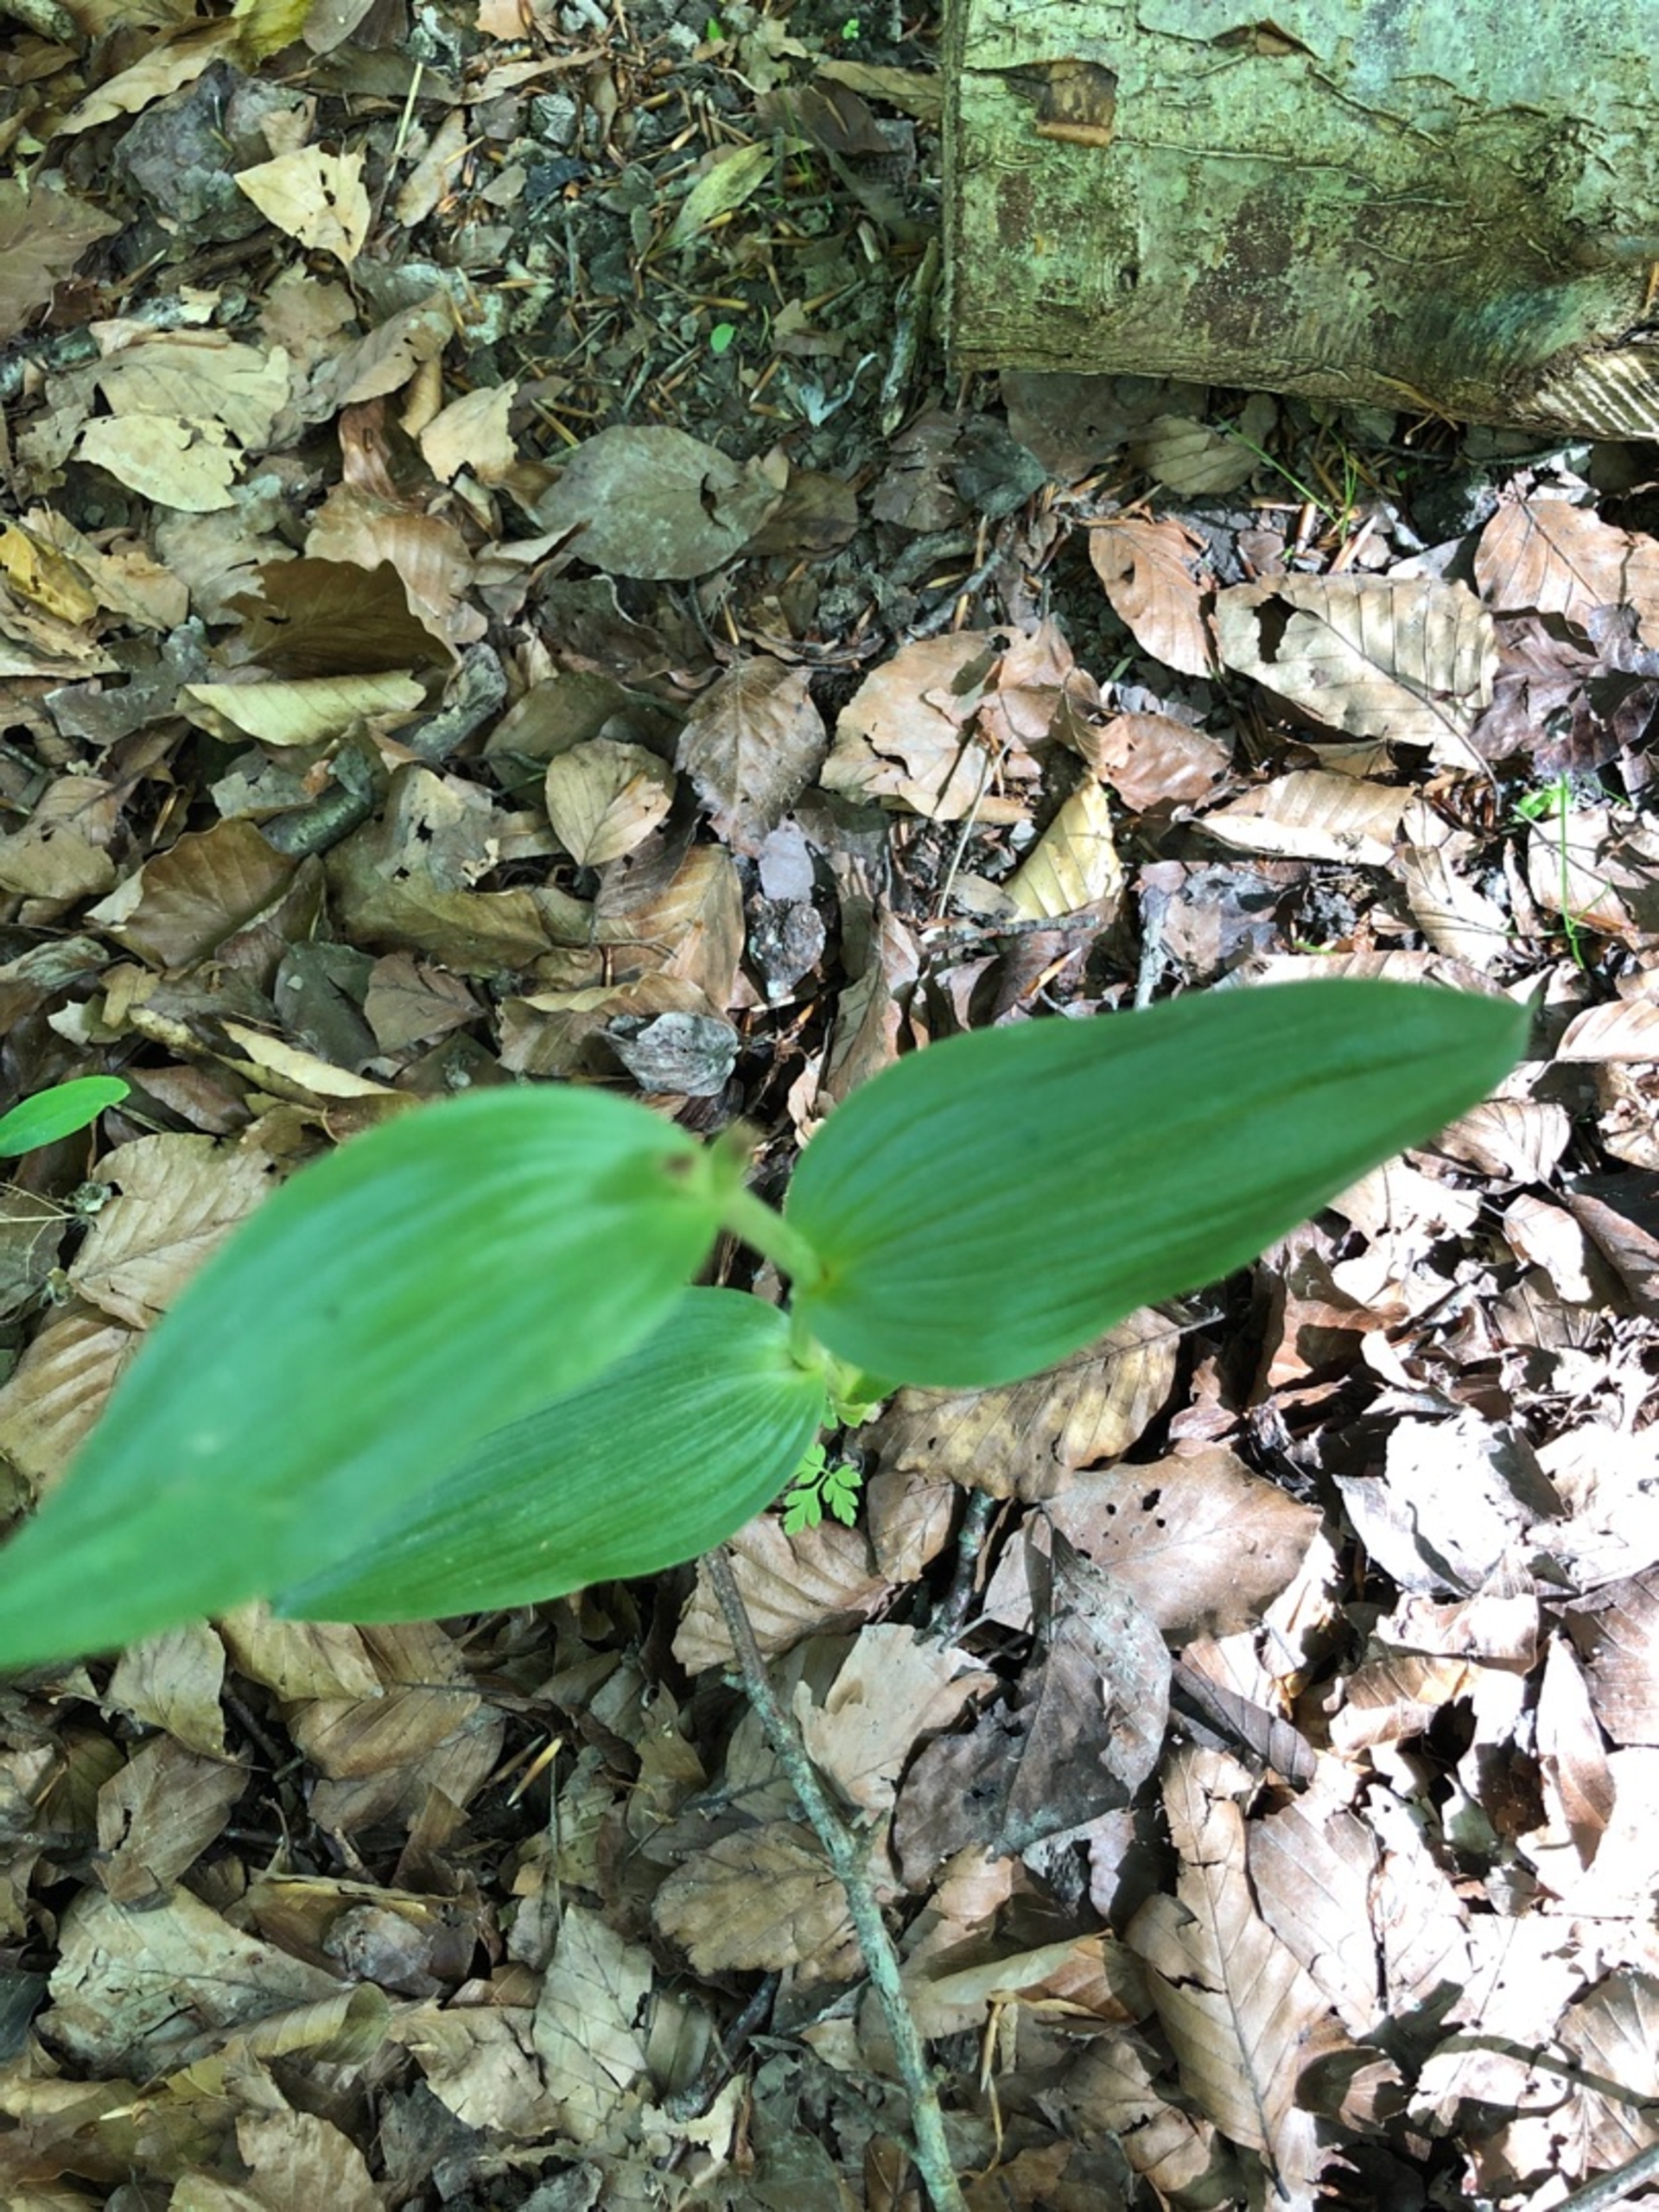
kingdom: Plantae
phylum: Tracheophyta
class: Liliopsida
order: Asparagales
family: Orchidaceae
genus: Cephalanthera
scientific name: Cephalanthera
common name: Skovliljeslægten
